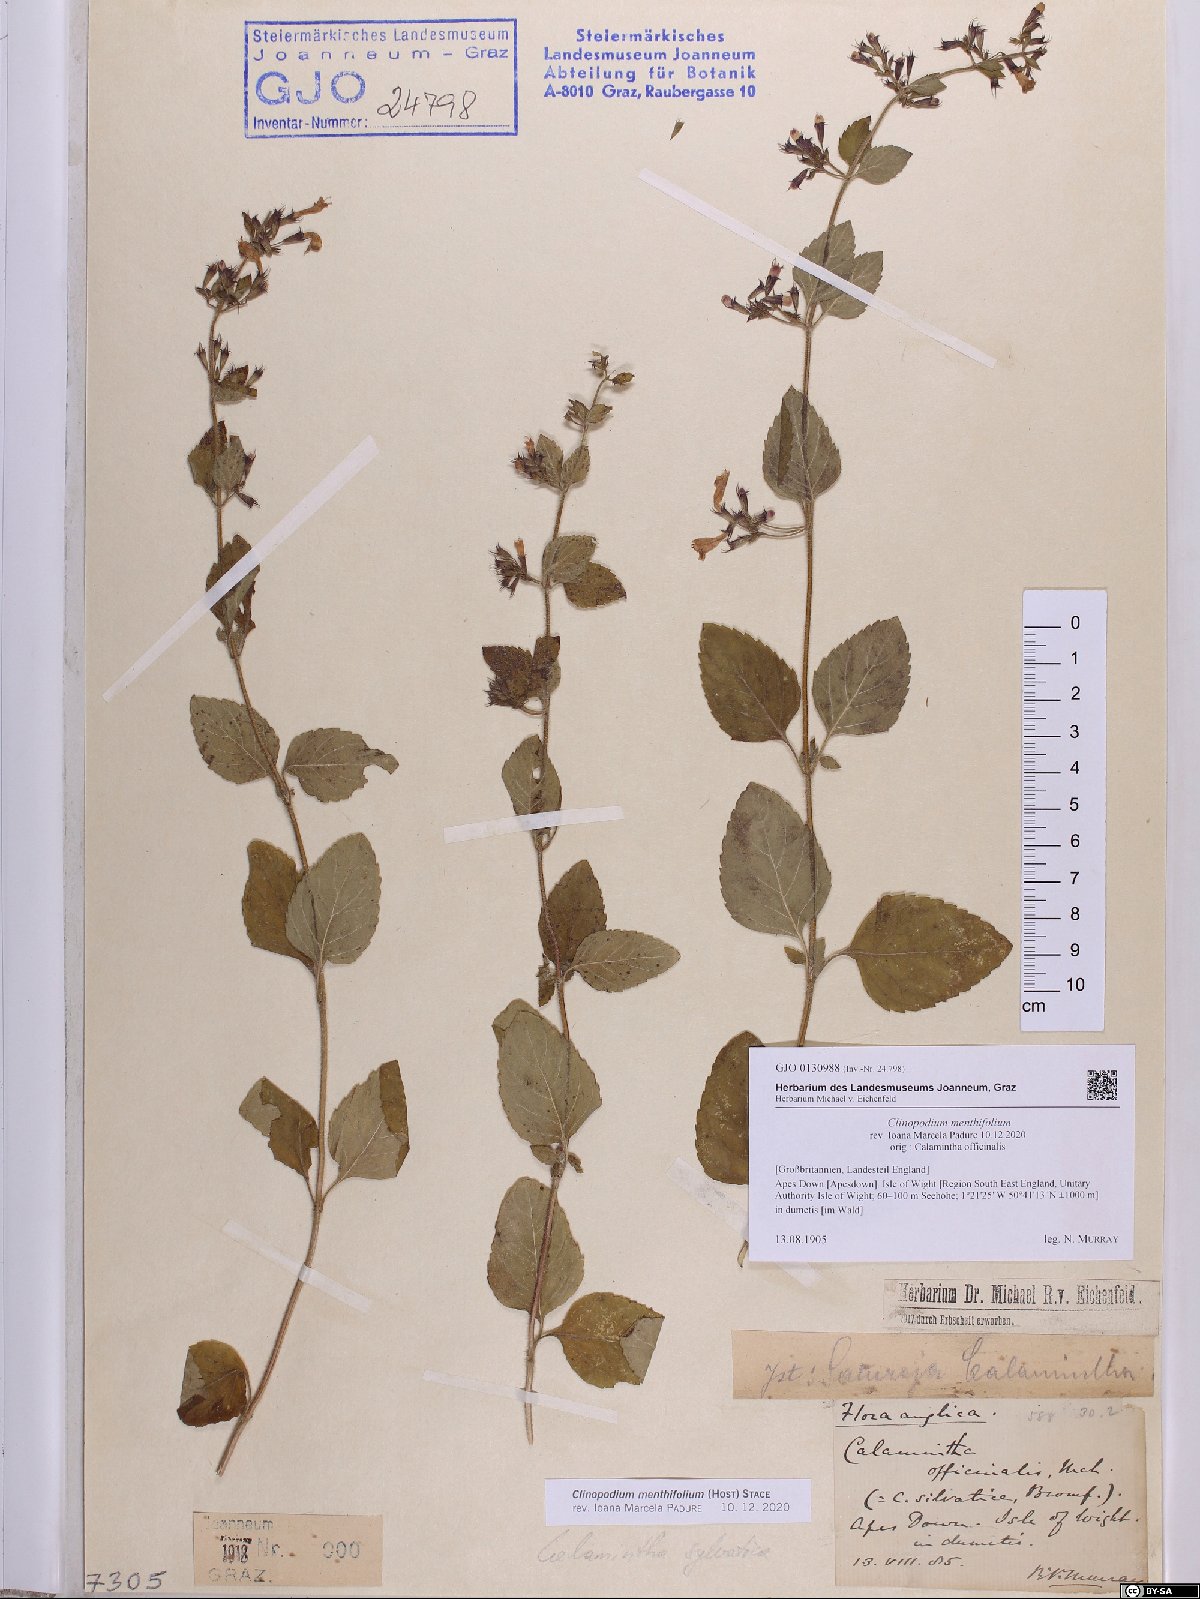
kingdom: Plantae
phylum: Tracheophyta
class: Magnoliopsida
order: Lamiales
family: Lamiaceae
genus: Clinopodium
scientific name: Clinopodium menthifolium
